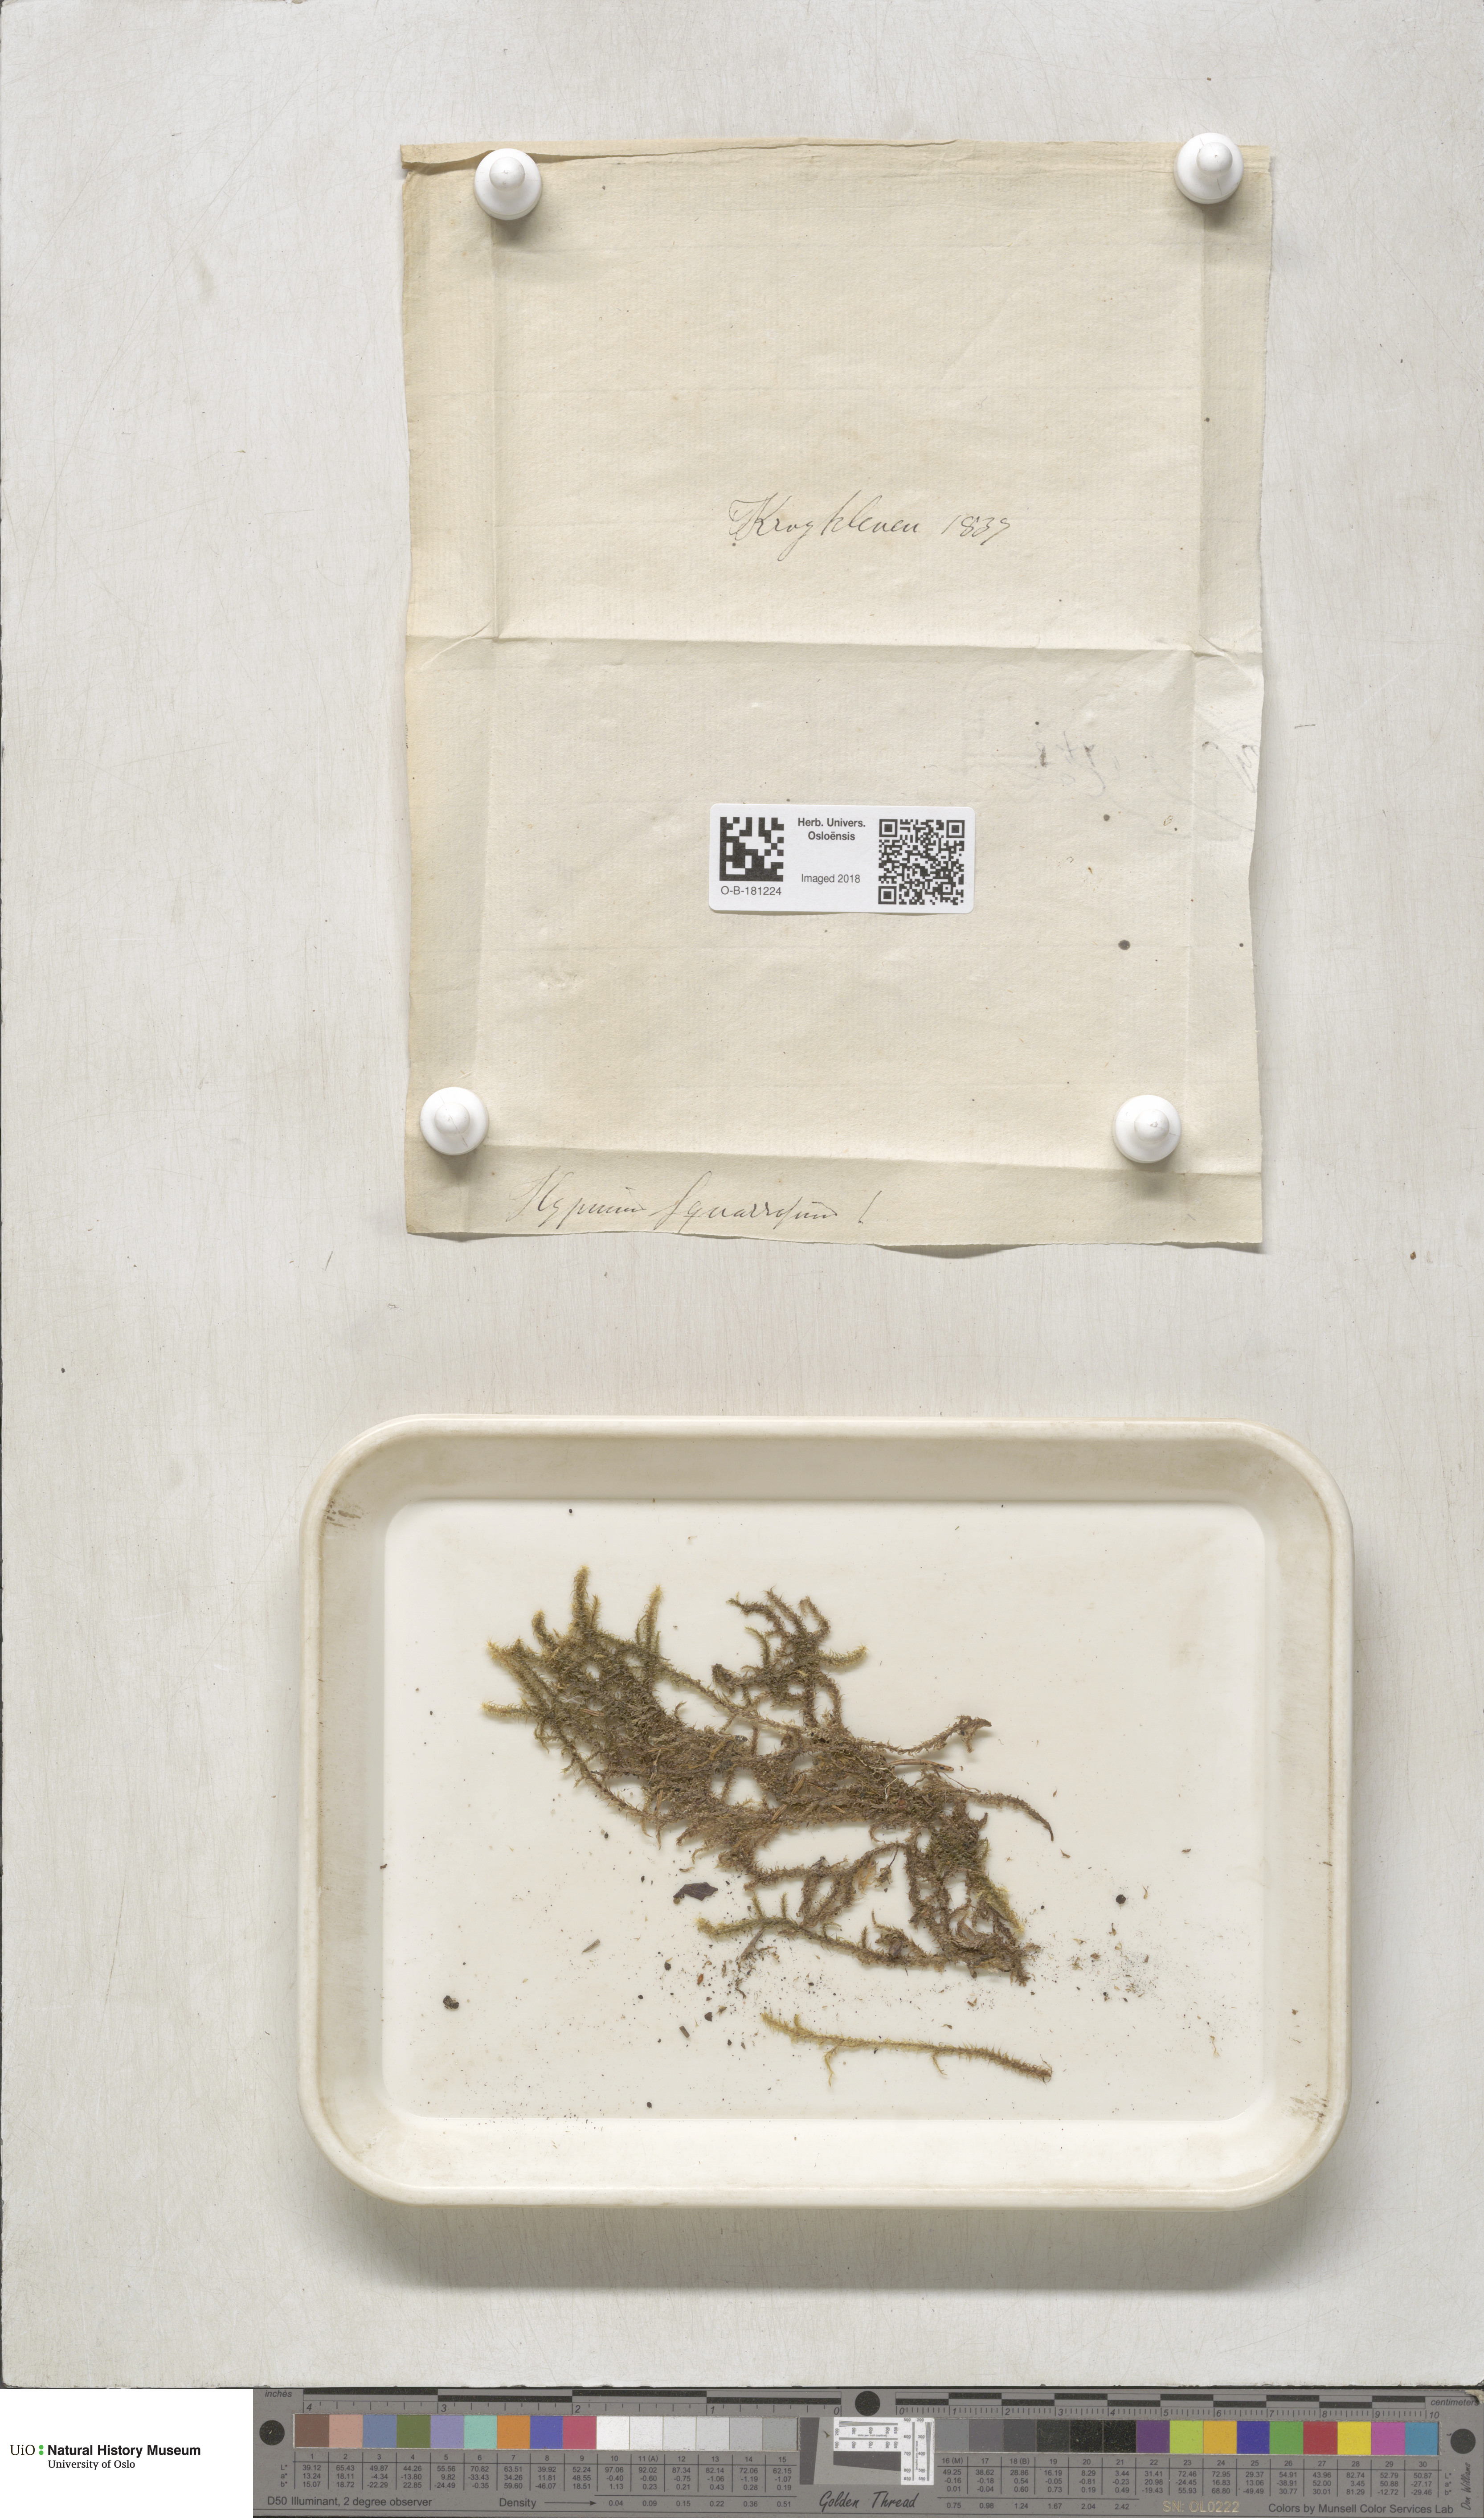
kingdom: Plantae
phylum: Bryophyta
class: Bryopsida
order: Hypnales
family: Hylocomiaceae
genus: Rhytidiadelphus
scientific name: Rhytidiadelphus squarrosus
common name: Springy turf-moss
